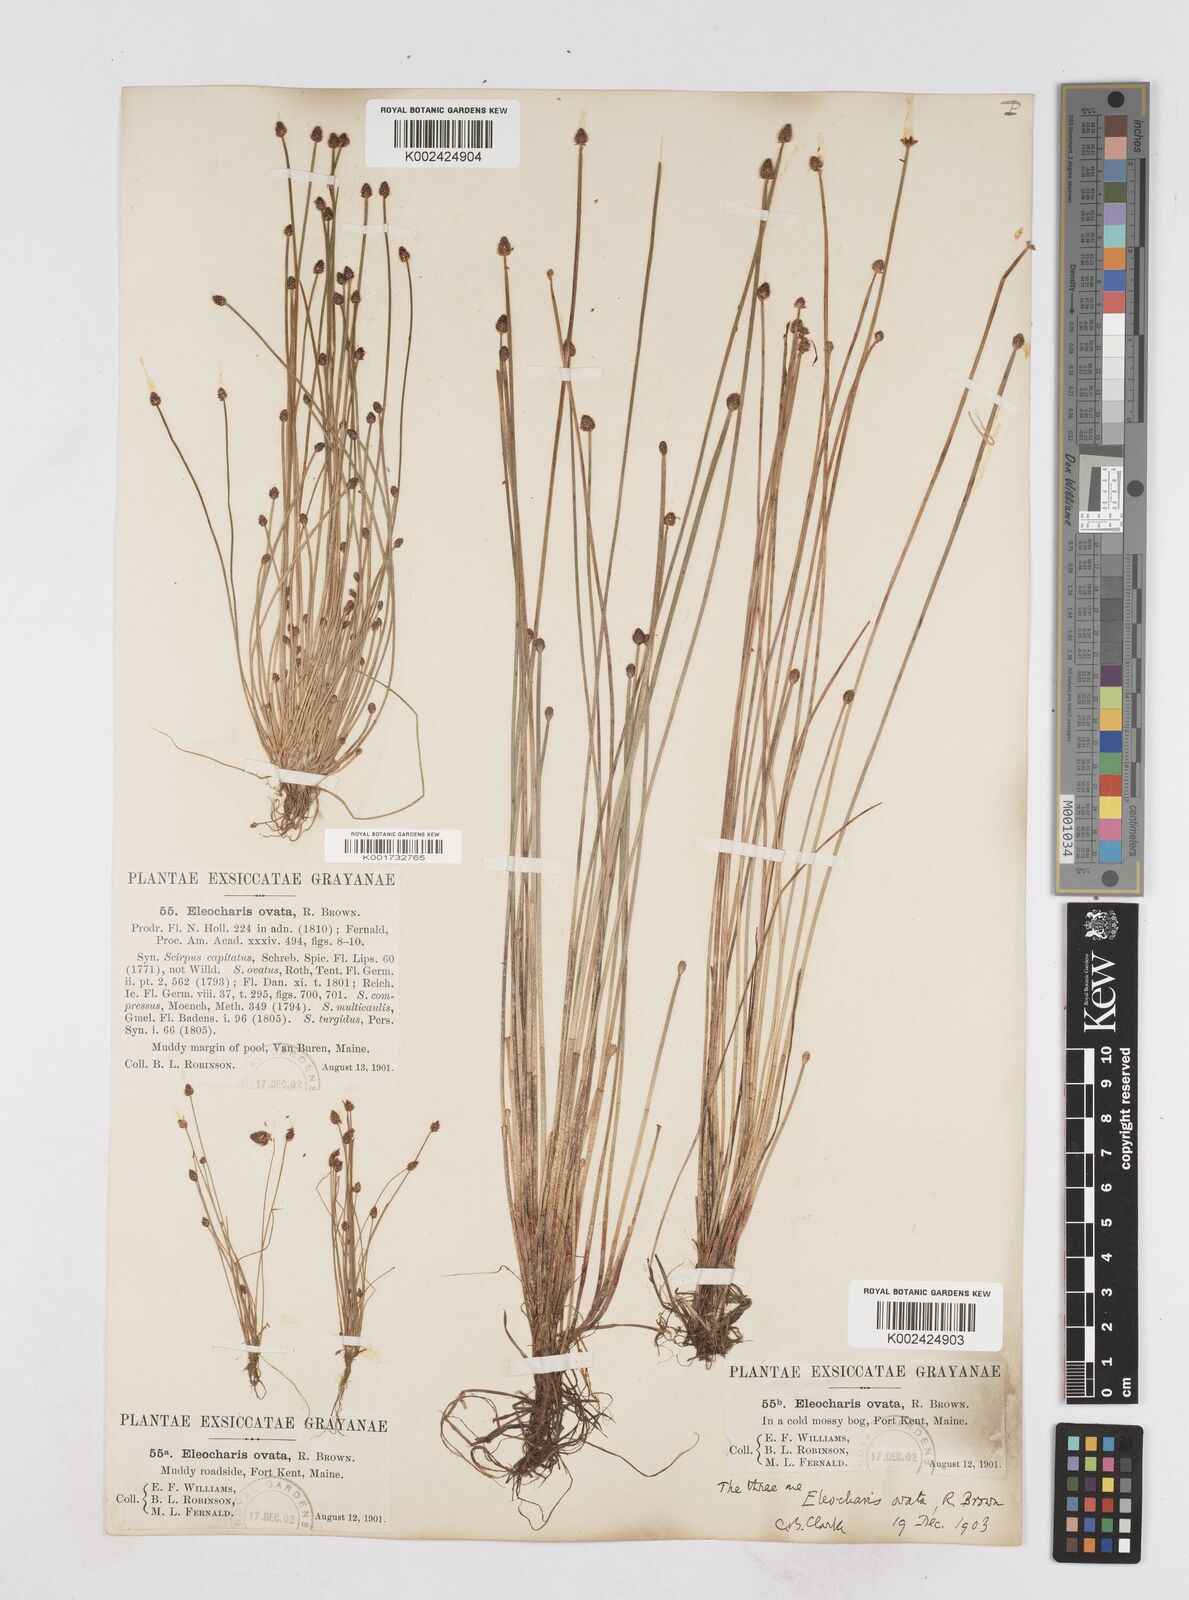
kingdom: Plantae
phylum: Tracheophyta
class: Liliopsida
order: Poales
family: Cyperaceae
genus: Eleocharis
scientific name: Eleocharis ovata
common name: Oval spike-rush
